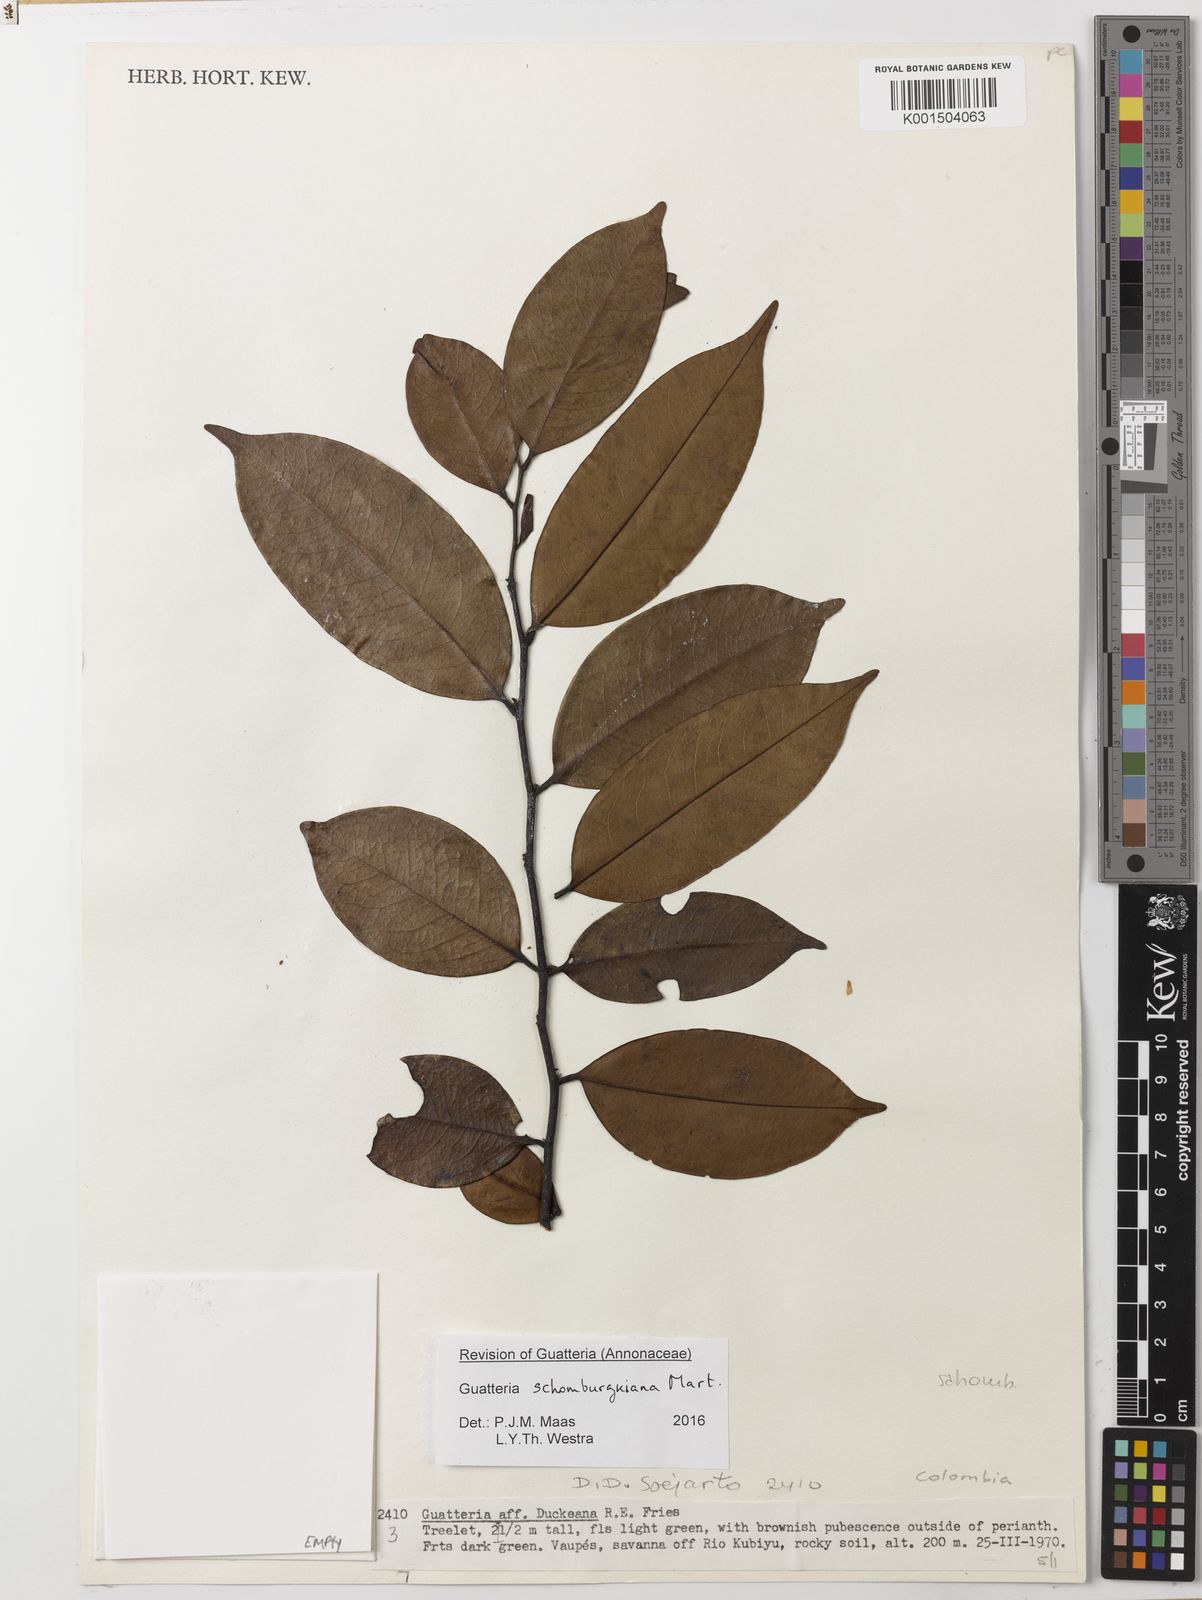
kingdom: Plantae
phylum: Tracheophyta
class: Magnoliopsida
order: Magnoliales
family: Annonaceae
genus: Guatteria
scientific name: Guatteria schomburgkiana
